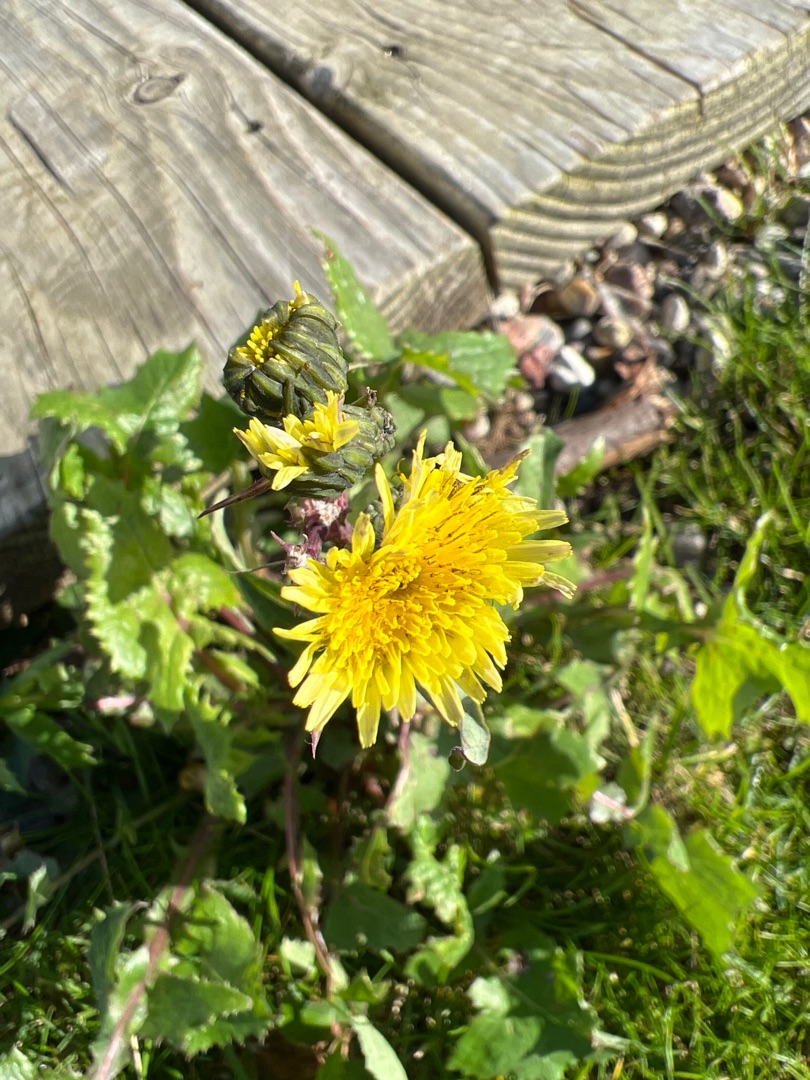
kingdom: Plantae
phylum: Tracheophyta
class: Magnoliopsida
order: Asterales
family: Asteraceae
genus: Sonchus
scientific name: Sonchus oleraceus
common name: Almindelig svinemælk
